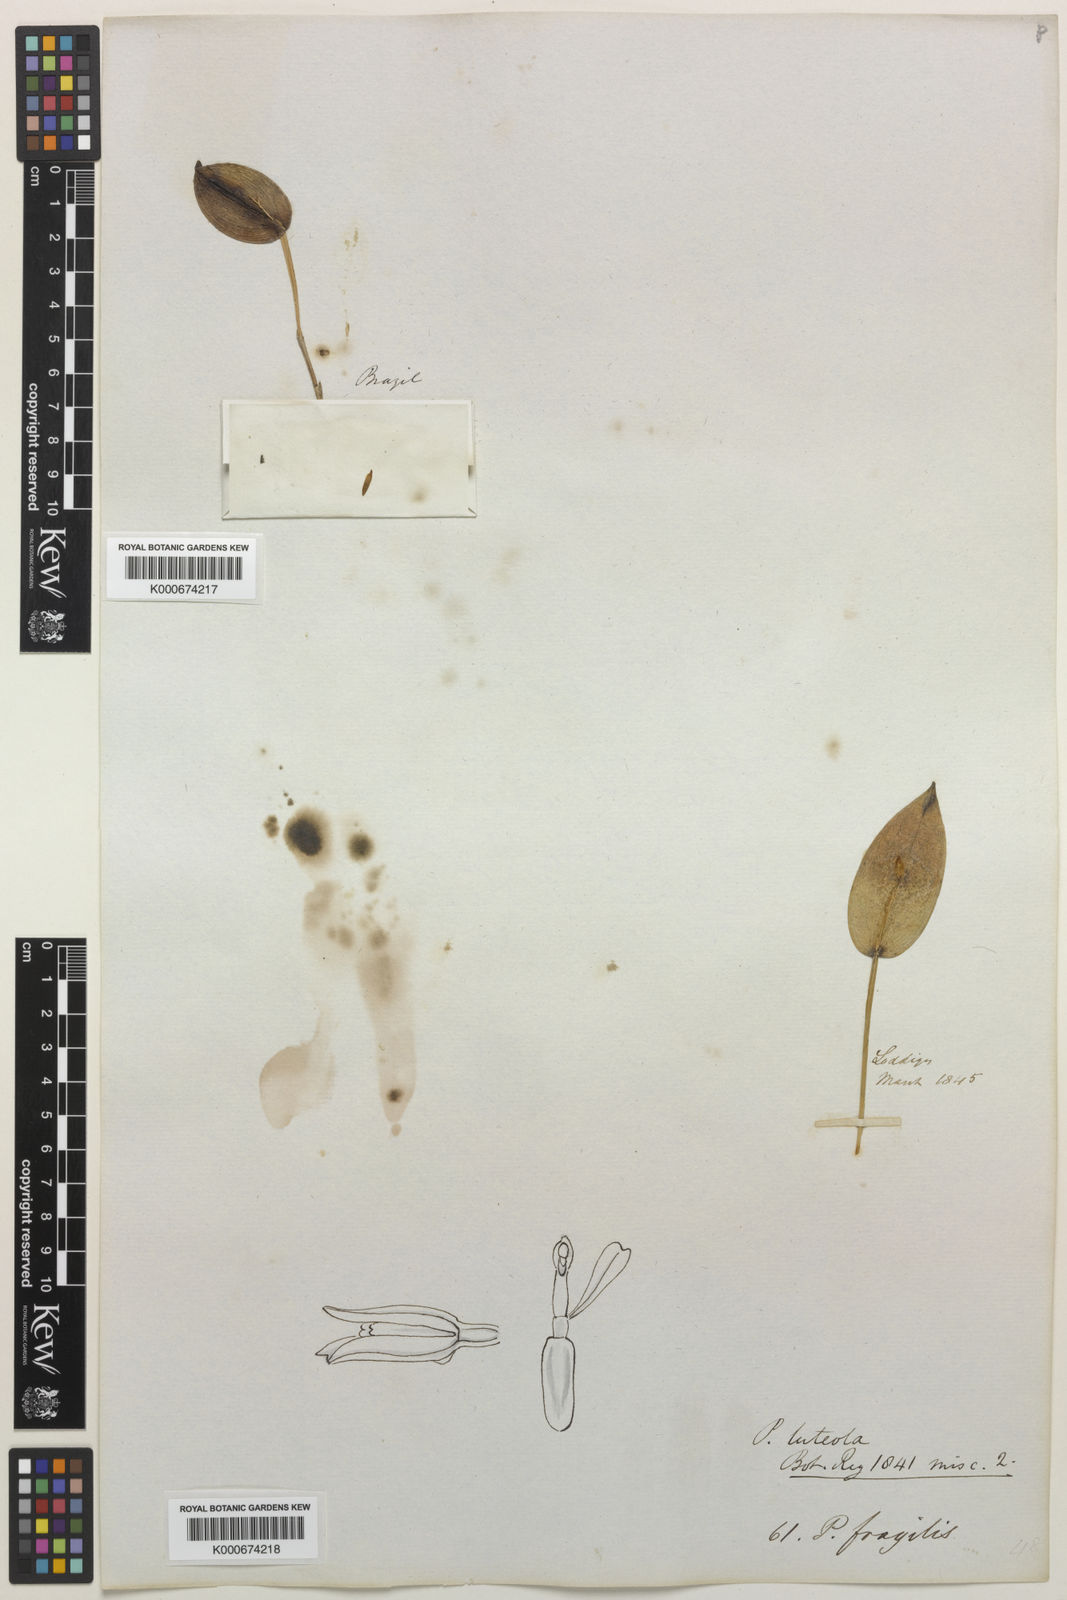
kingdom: Plantae
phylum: Tracheophyta
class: Liliopsida
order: Asparagales
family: Orchidaceae
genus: Acianthera
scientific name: Acianthera luteola
